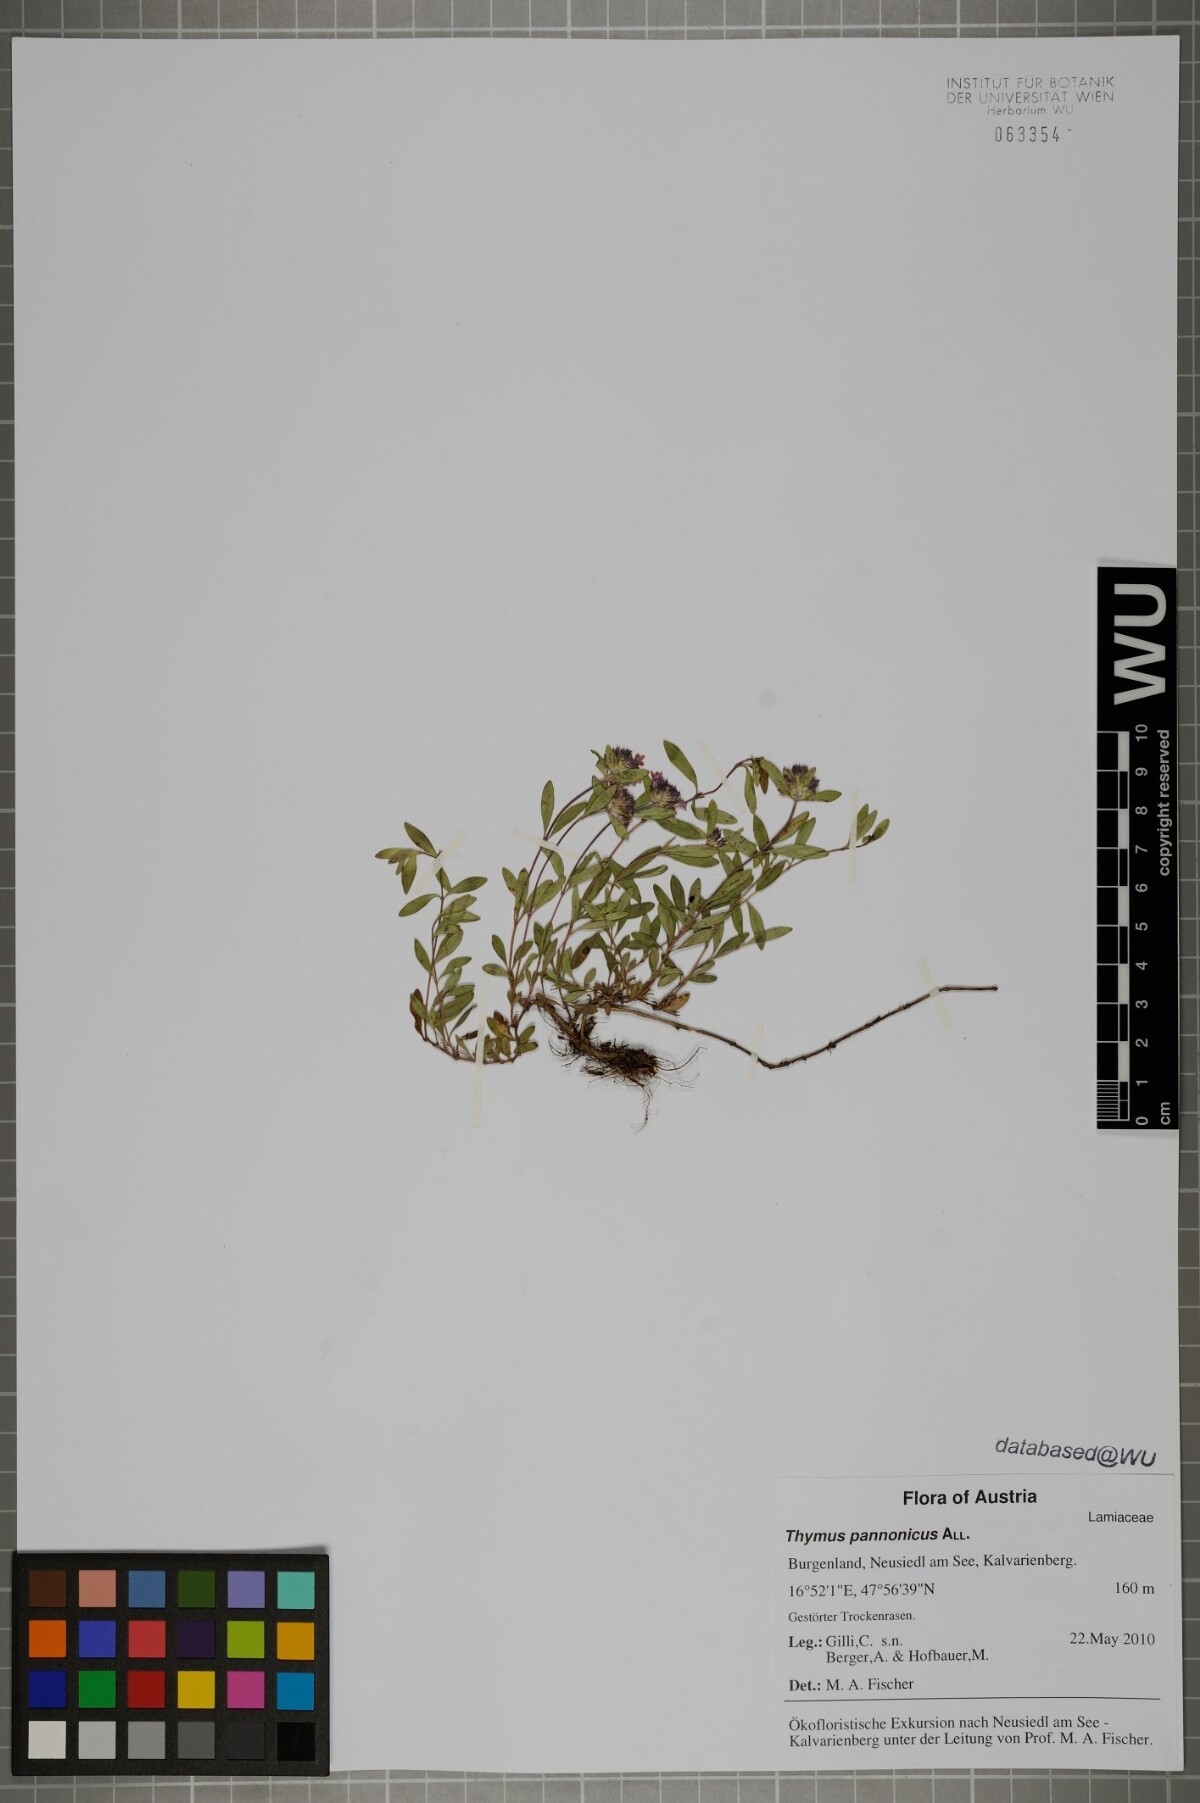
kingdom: Plantae
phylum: Tracheophyta
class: Magnoliopsida
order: Lamiales
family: Lamiaceae
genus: Thymus
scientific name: Thymus pannonicus
